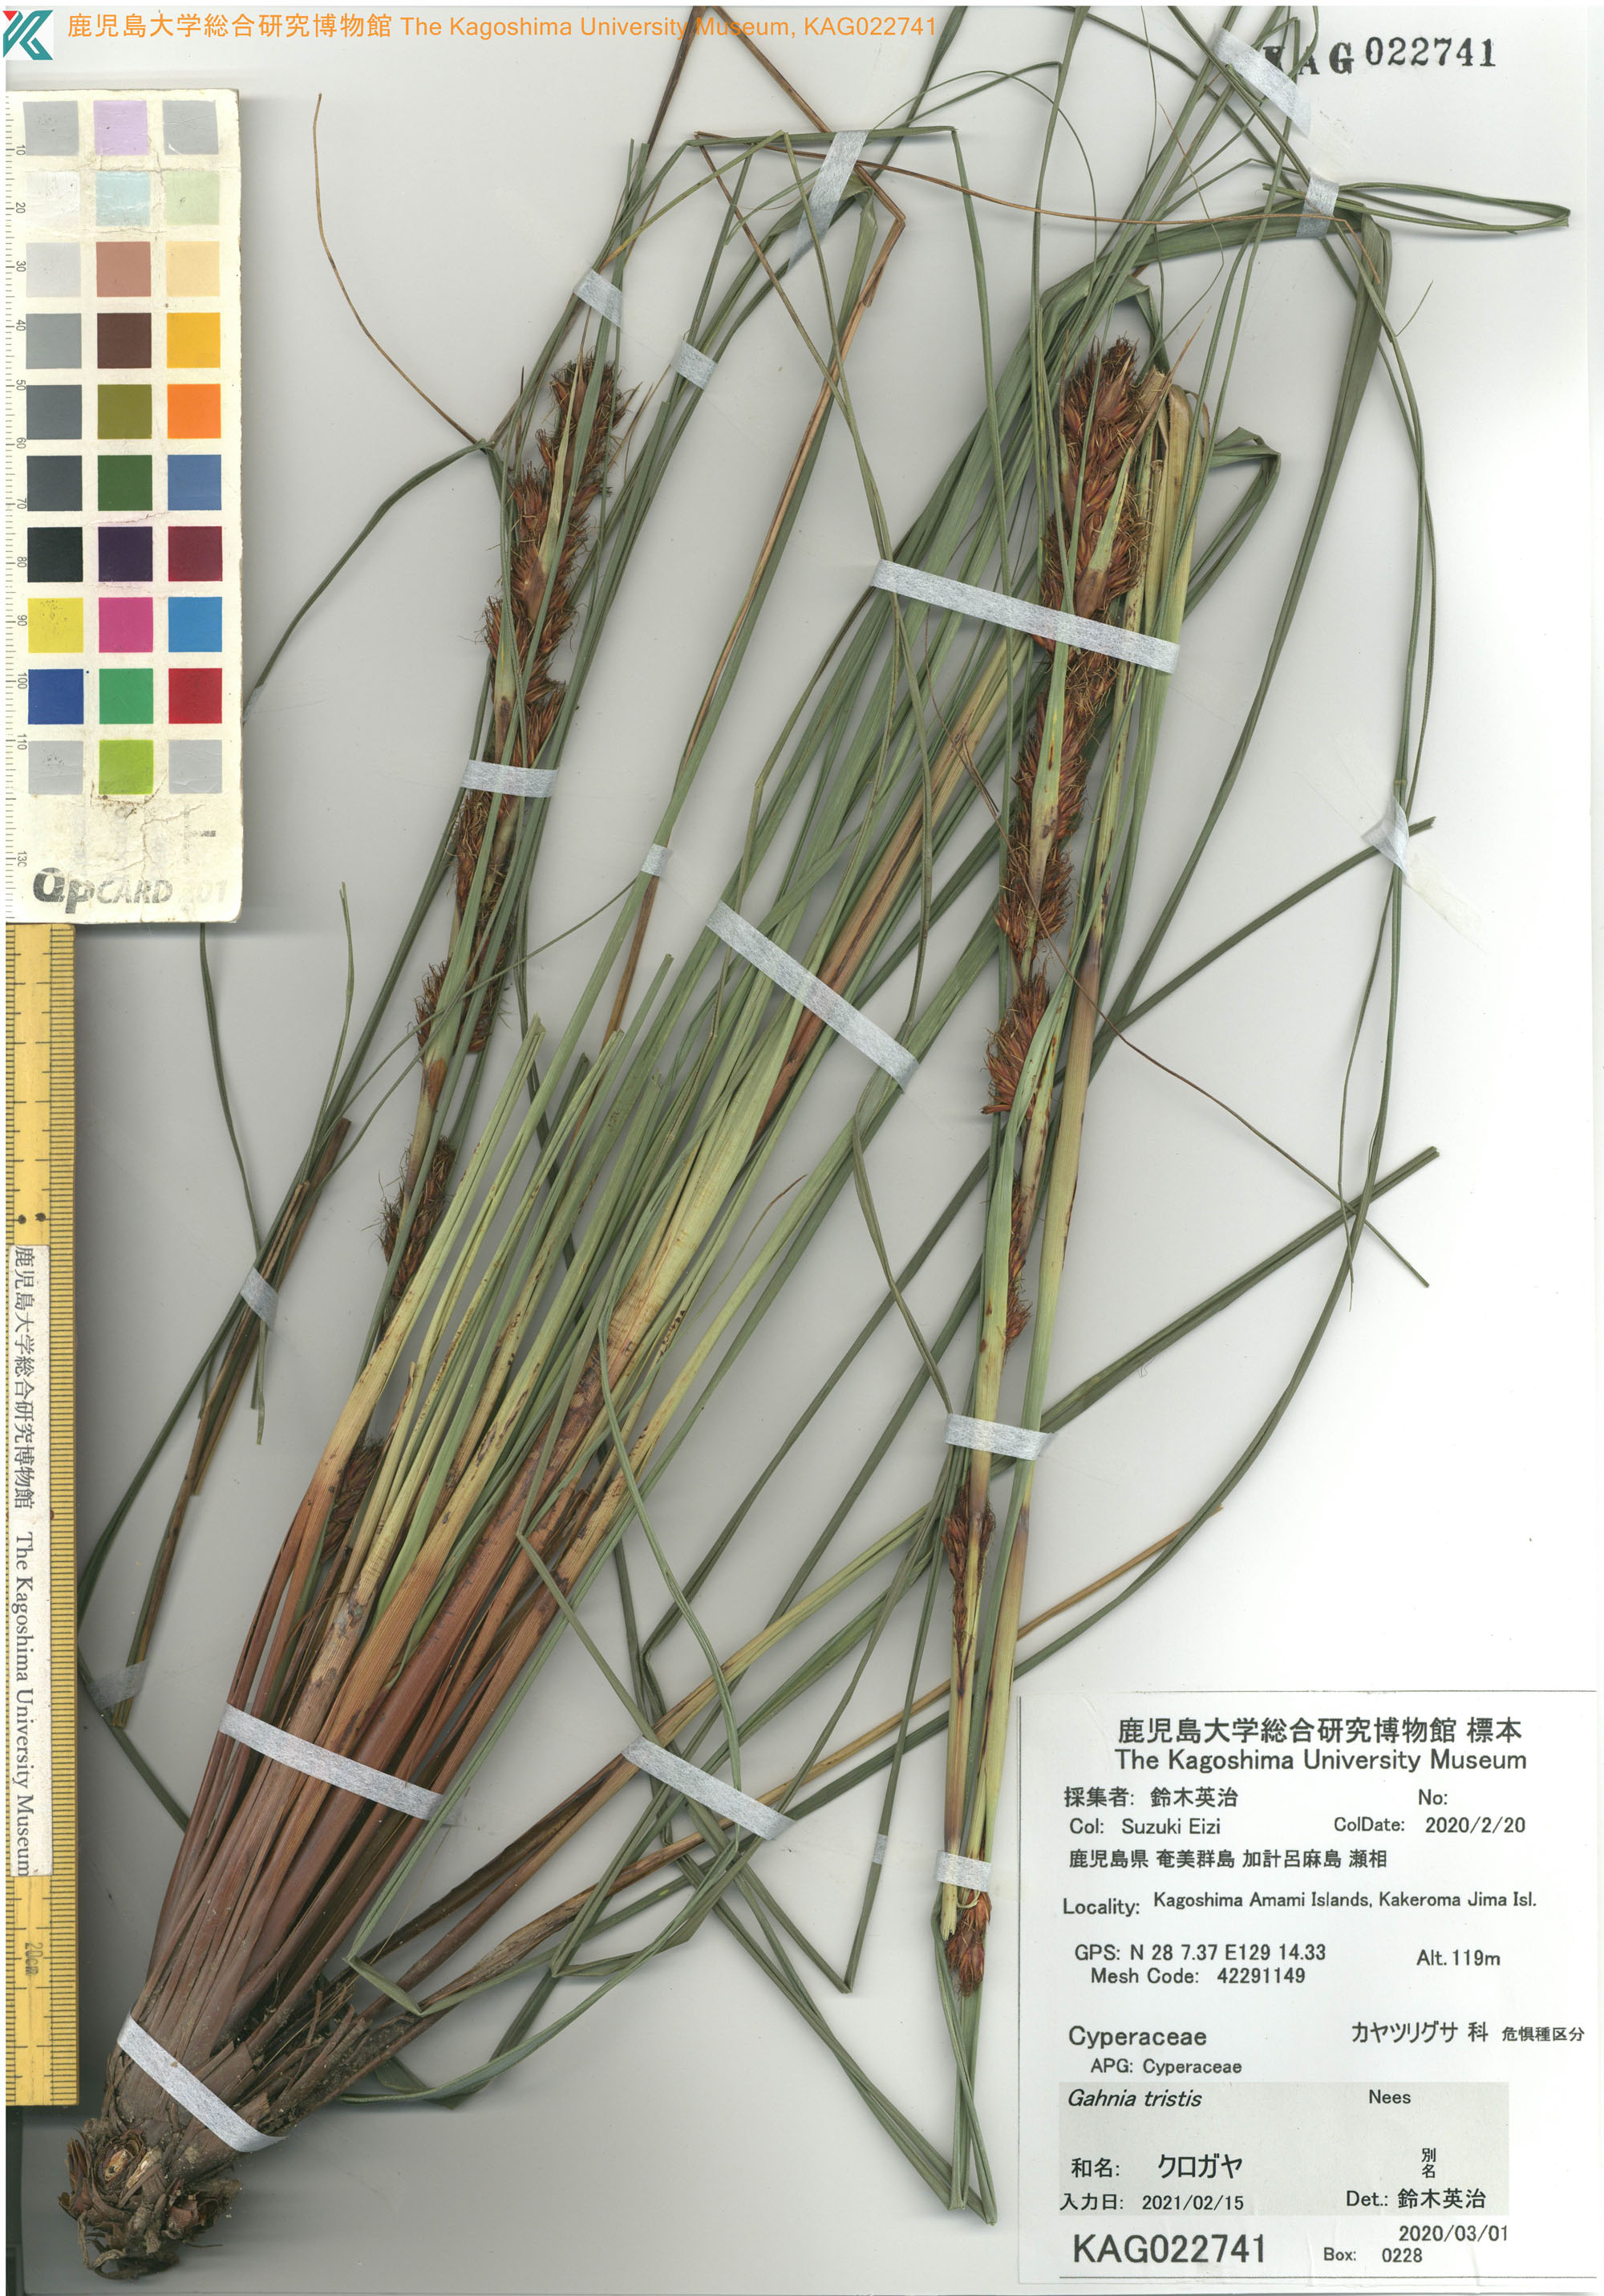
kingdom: Plantae
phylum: Tracheophyta
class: Liliopsida
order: Poales
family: Cyperaceae
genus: Gahnia
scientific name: Gahnia tristis
